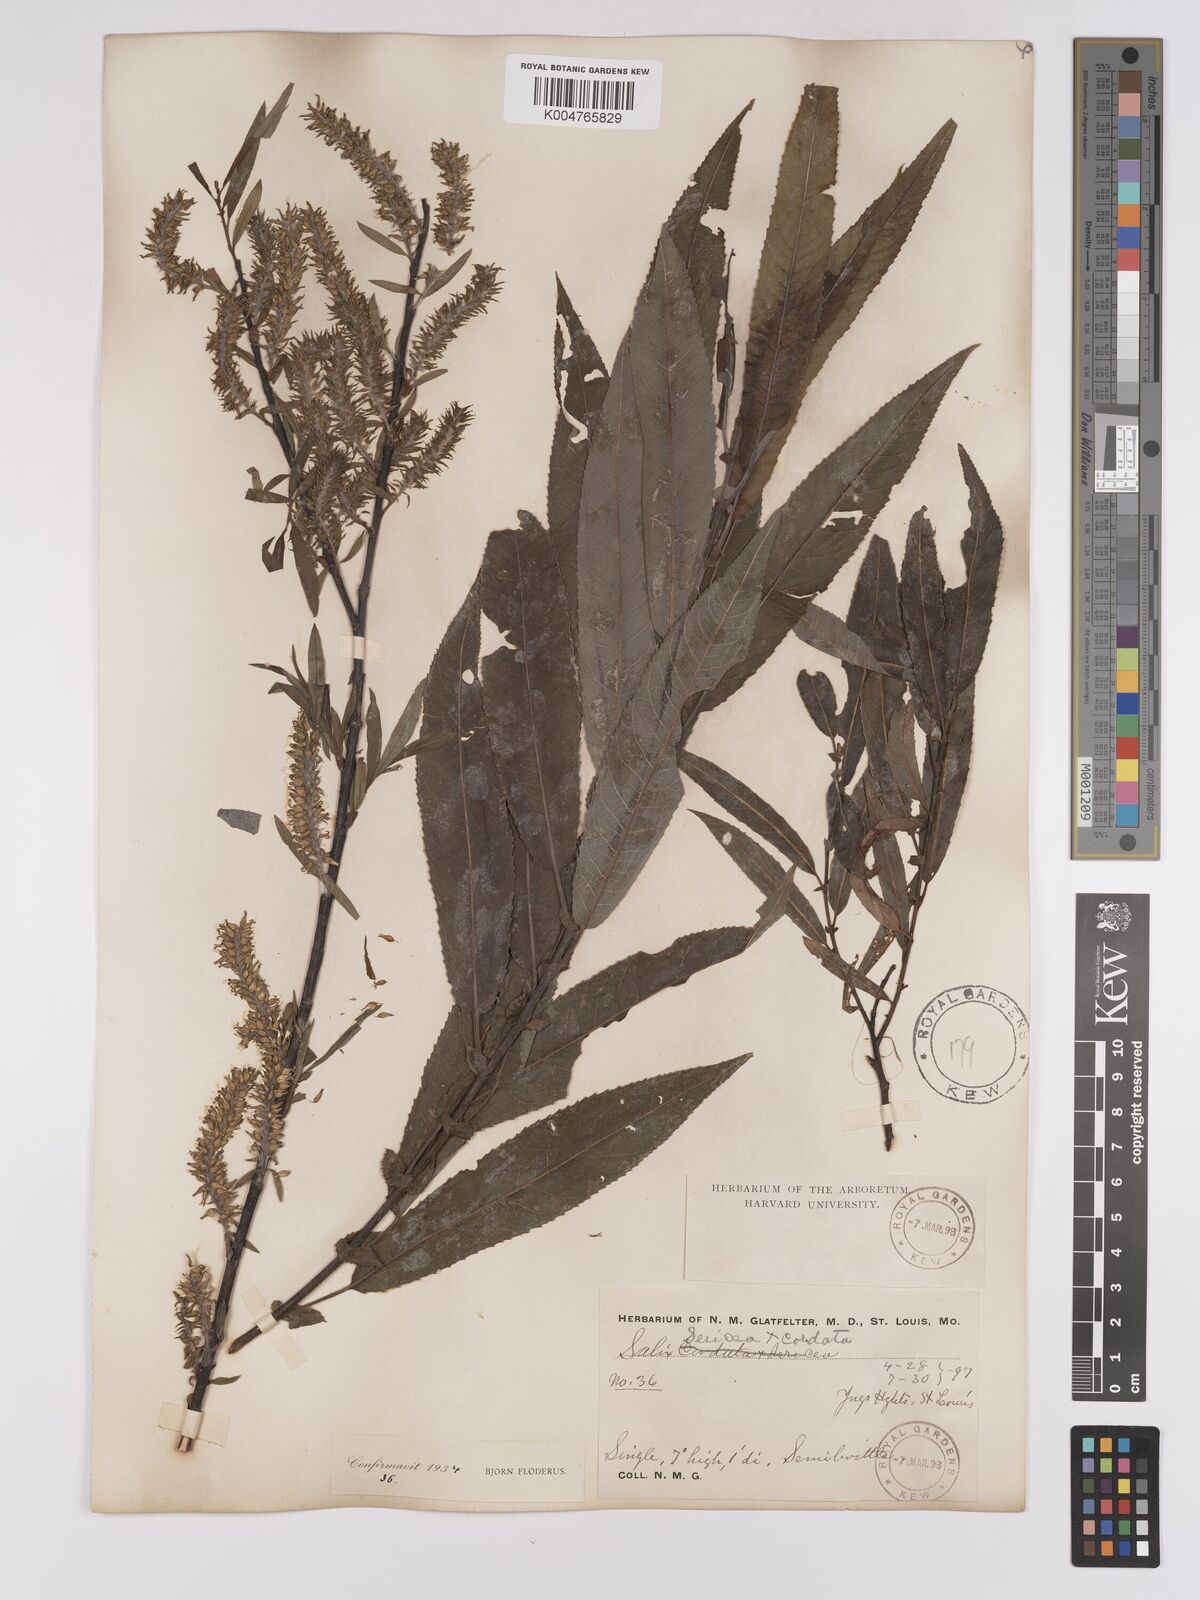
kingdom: Plantae
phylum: Tracheophyta
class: Magnoliopsida
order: Malpighiales
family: Salicaceae
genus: Salix
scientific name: Salix
